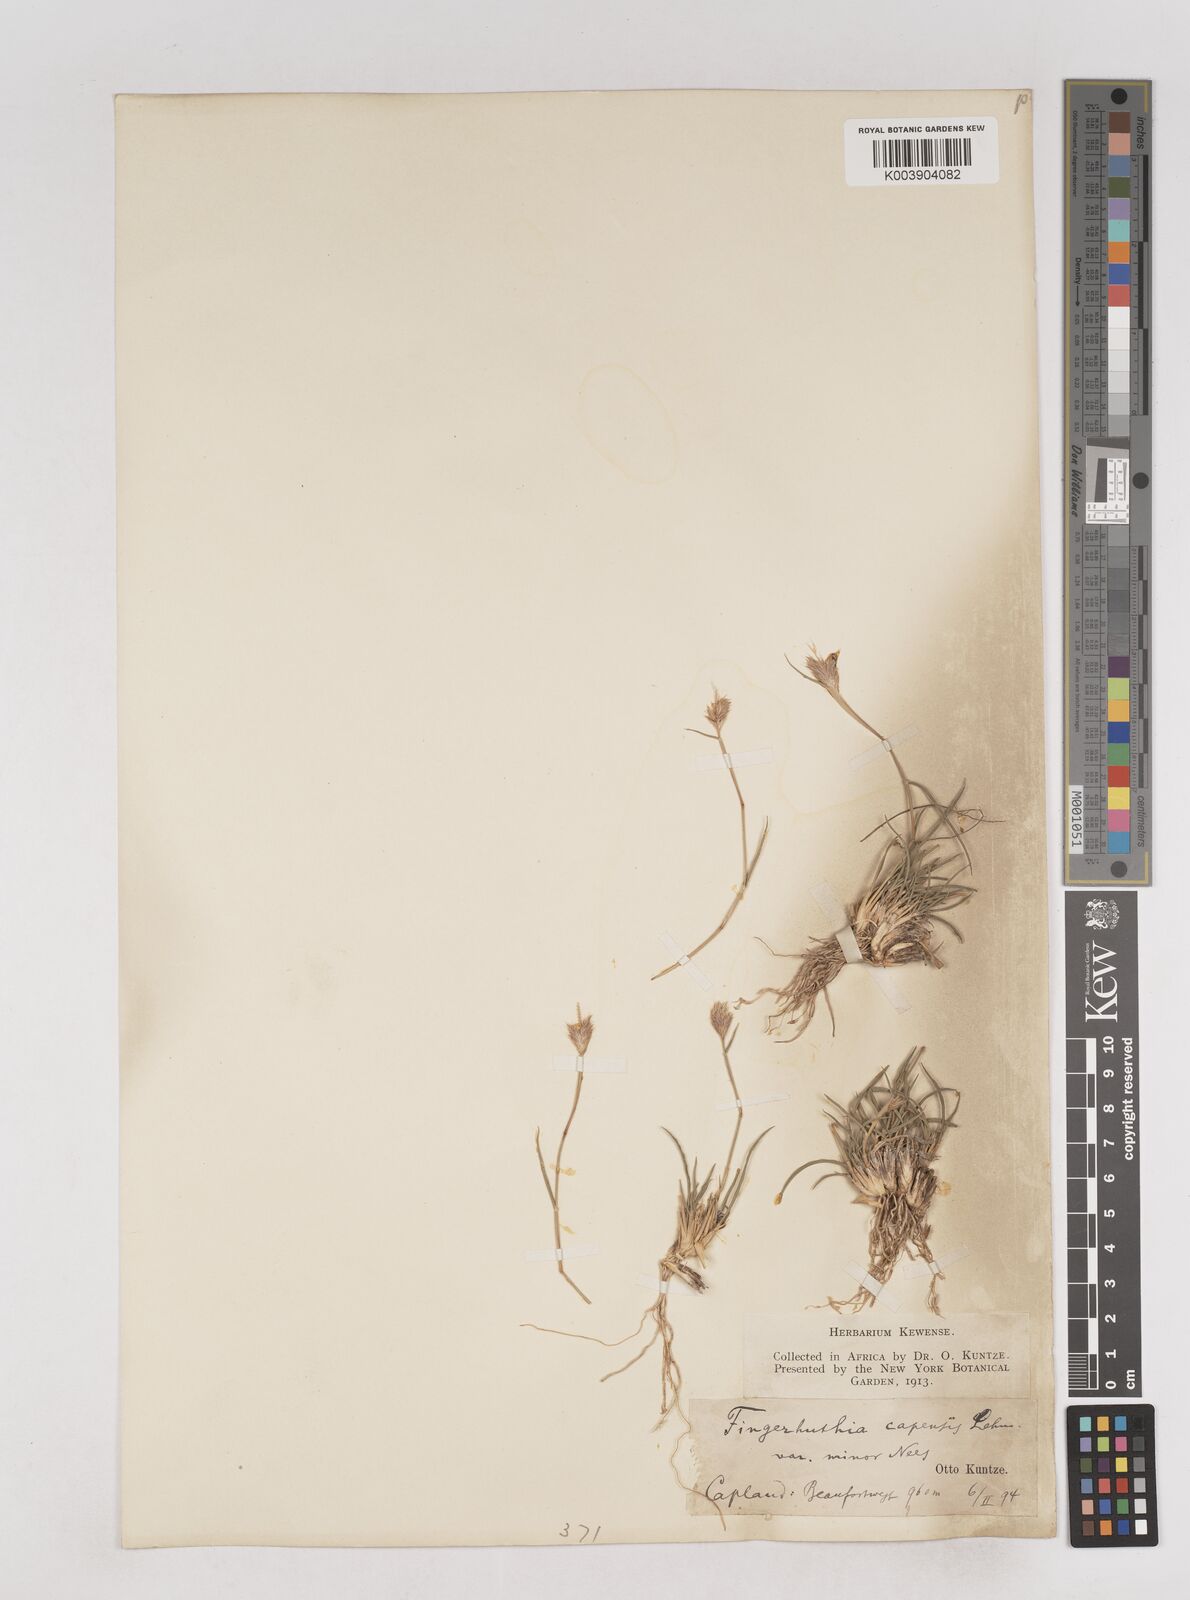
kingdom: Plantae
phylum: Tracheophyta
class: Liliopsida
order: Poales
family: Poaceae
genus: Fingerhuthia
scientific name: Fingerhuthia africana
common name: Zulu fescue
